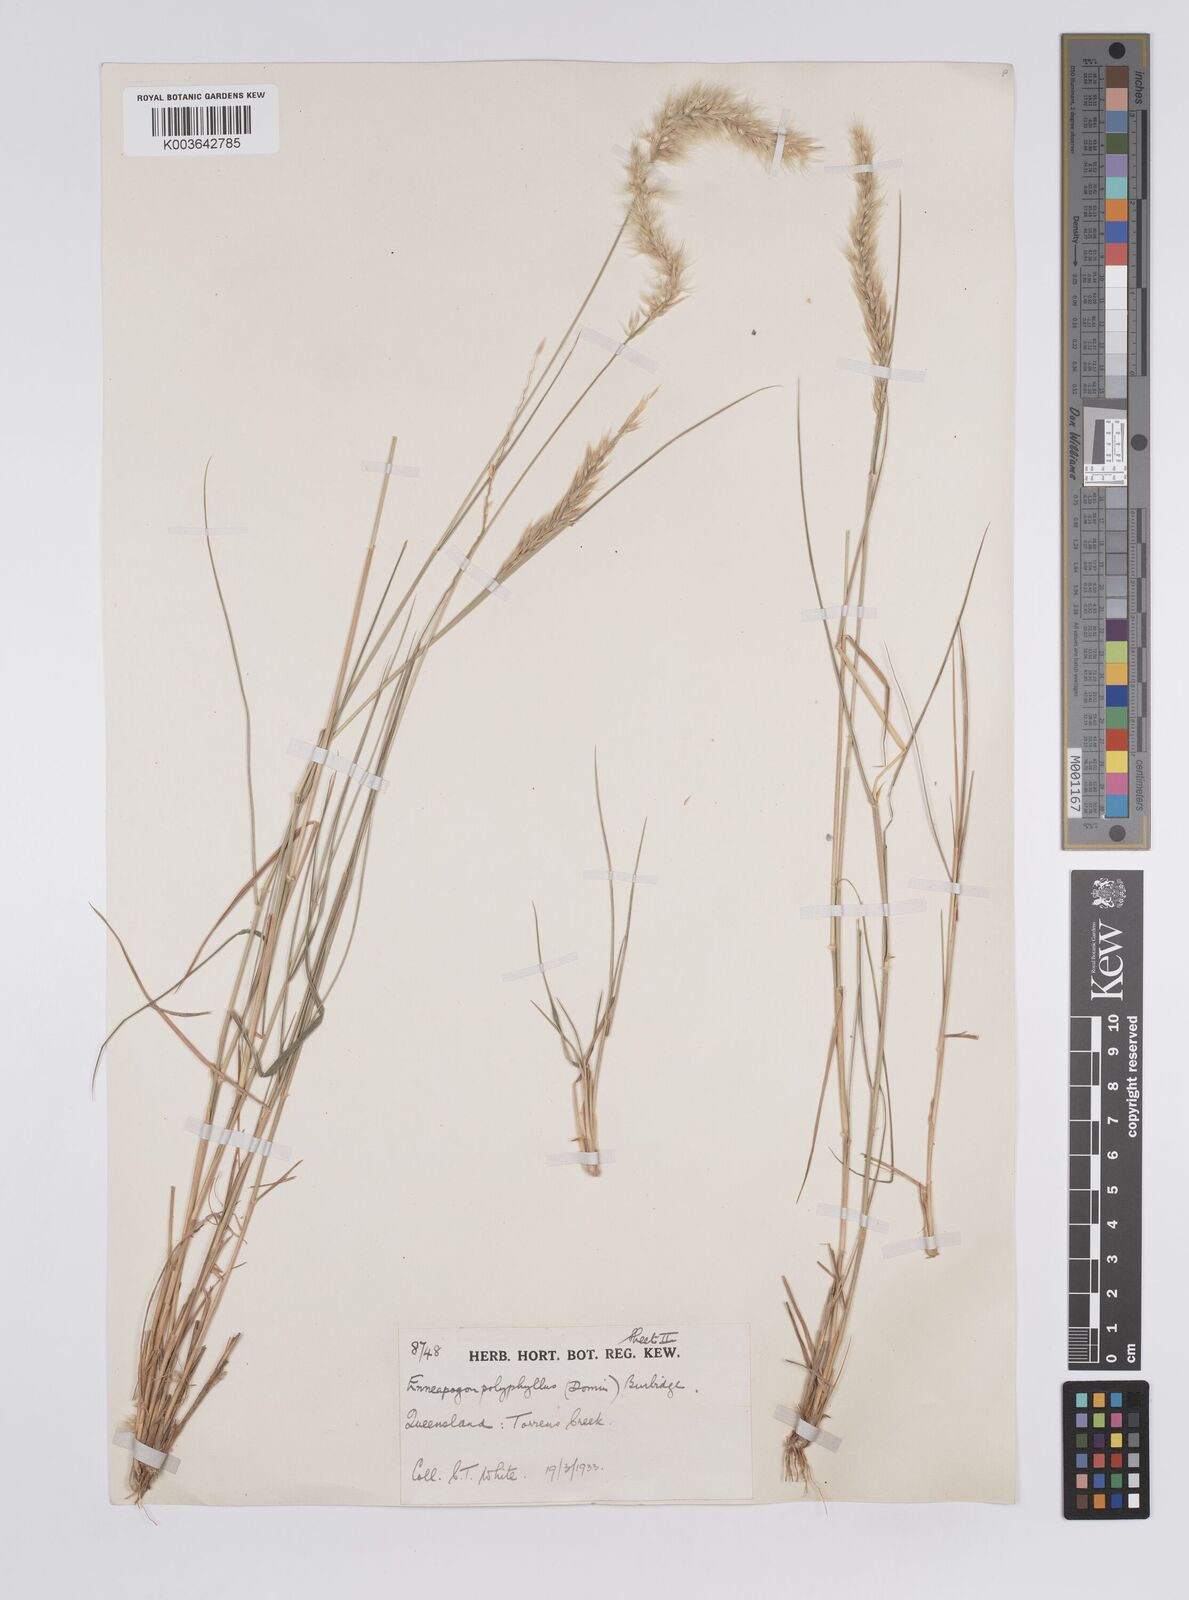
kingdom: Plantae
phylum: Tracheophyta
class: Liliopsida
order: Poales
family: Poaceae
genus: Enneapogon
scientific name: Enneapogon polyphyllus
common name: Leafy nineawn
